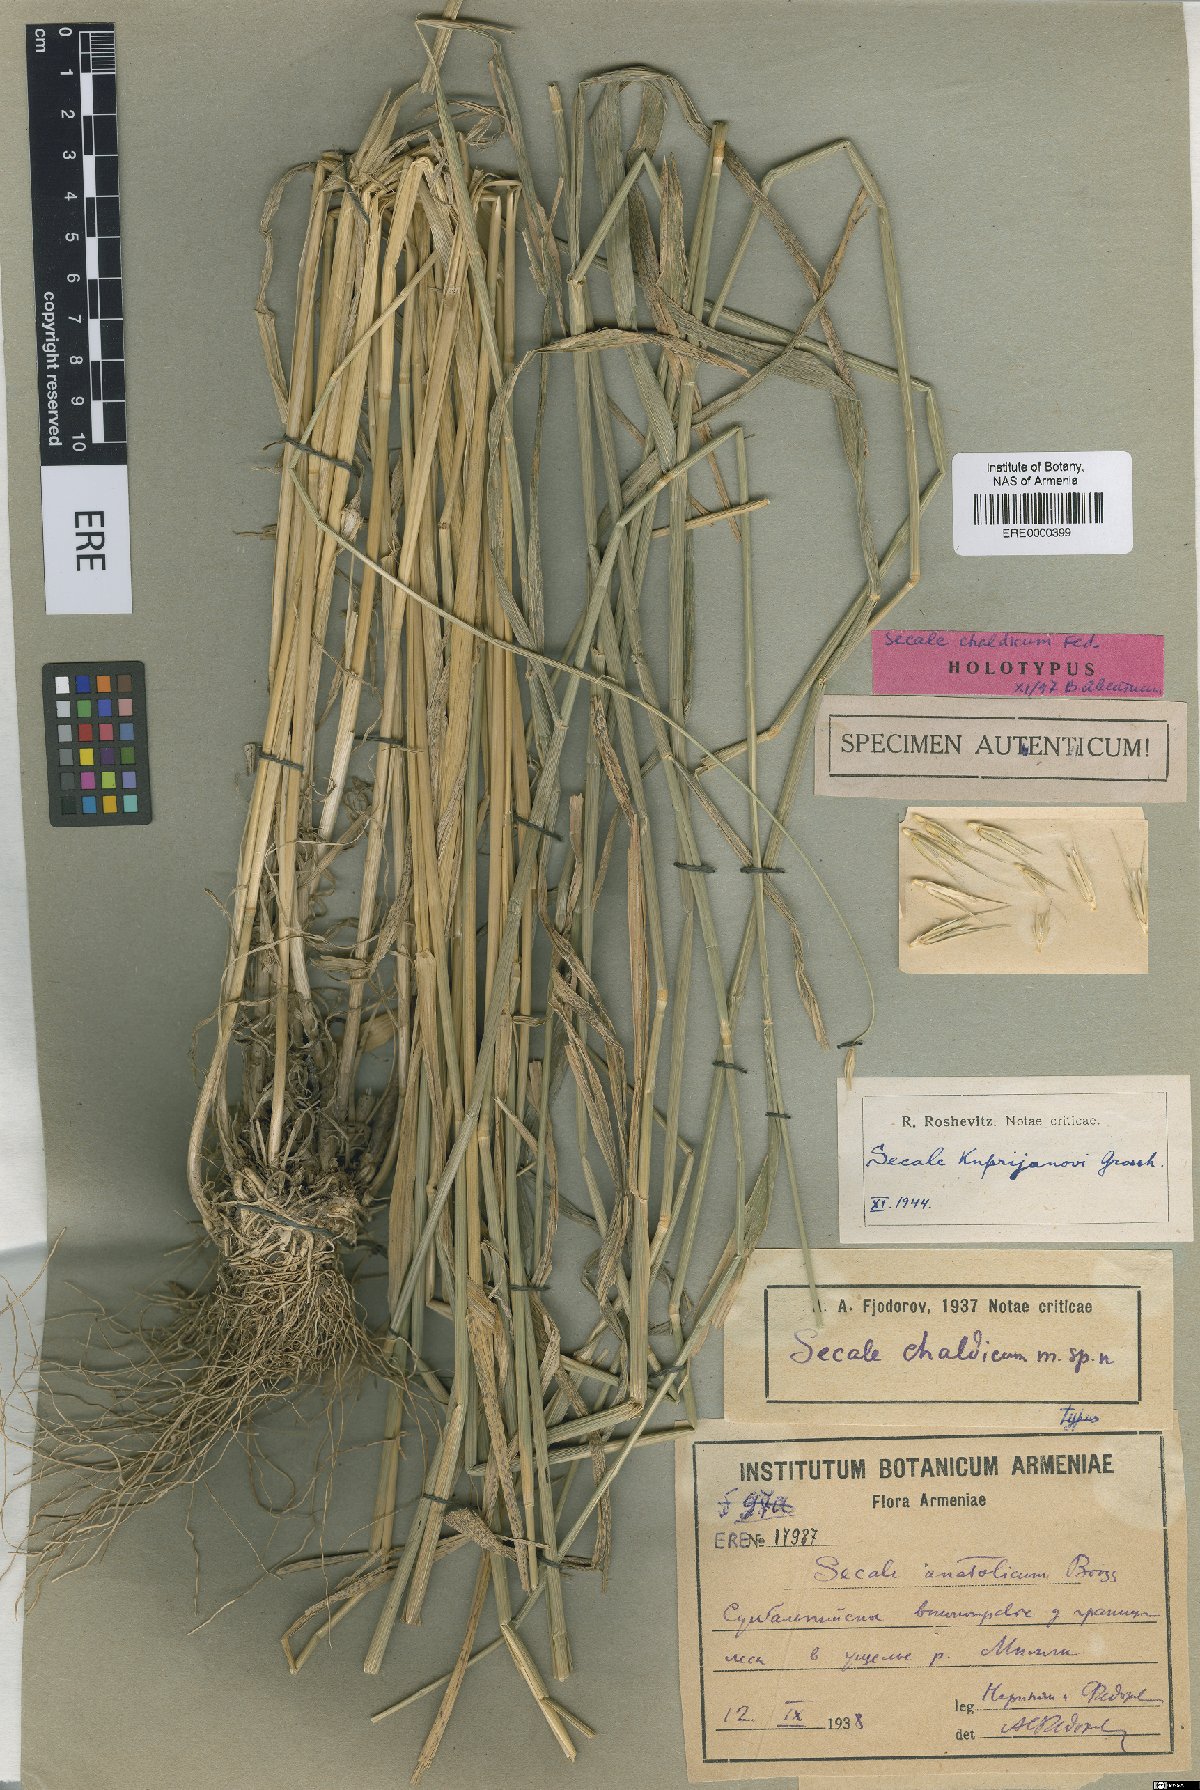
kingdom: Plantae
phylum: Tracheophyta
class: Liliopsida
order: Poales
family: Poaceae
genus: Secale
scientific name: Secale strictum
